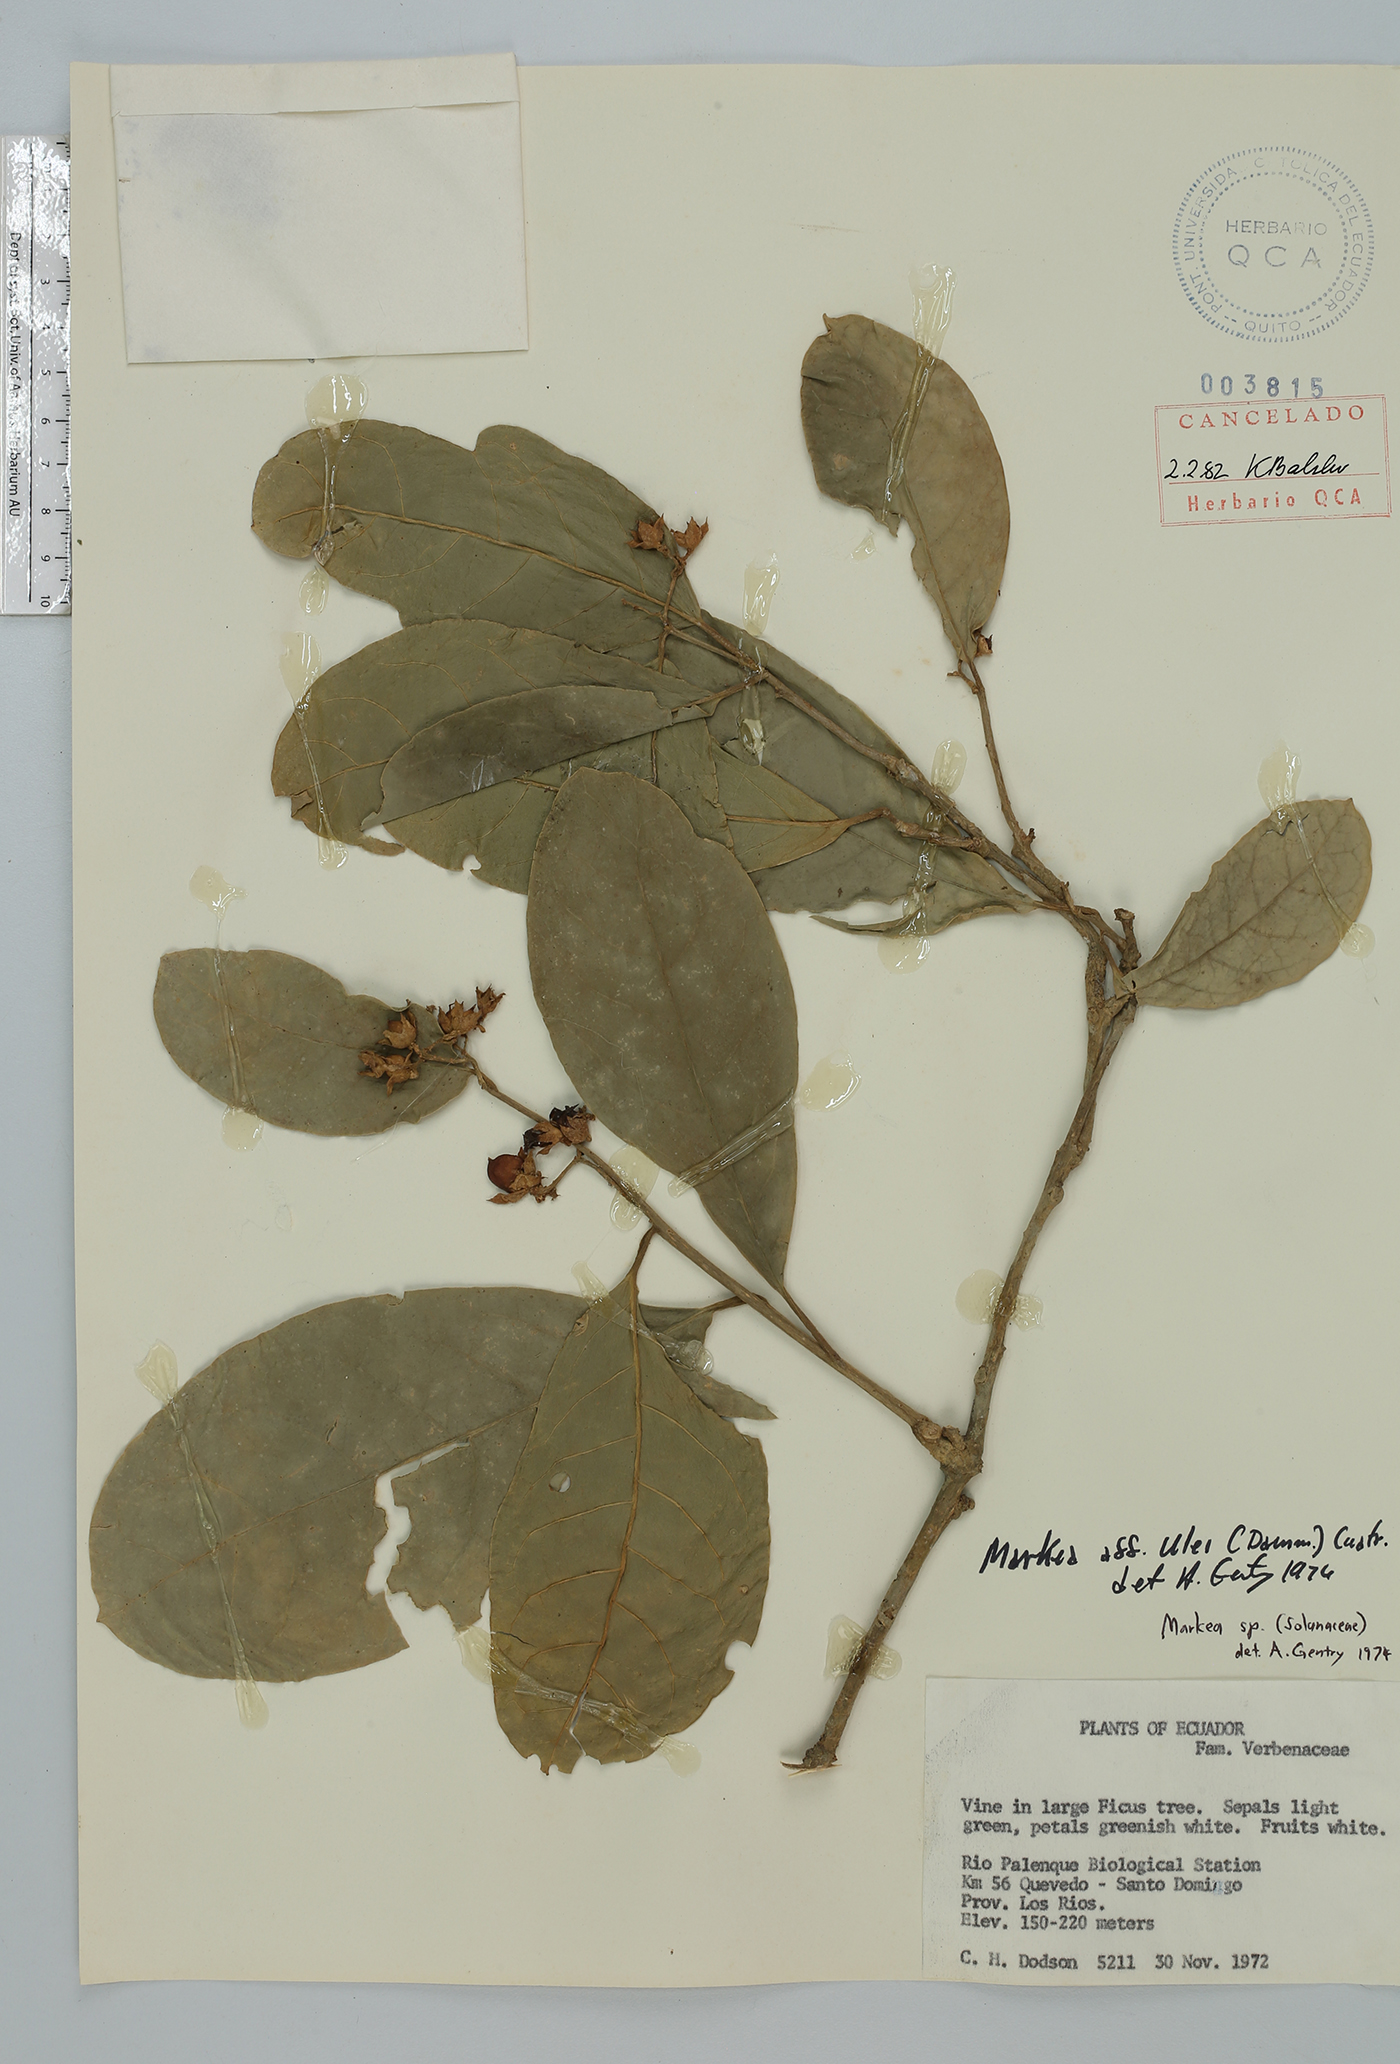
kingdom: Plantae
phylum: Tracheophyta
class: Magnoliopsida
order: Solanales
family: Solanaceae
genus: Markea
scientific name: Markea pavonii
